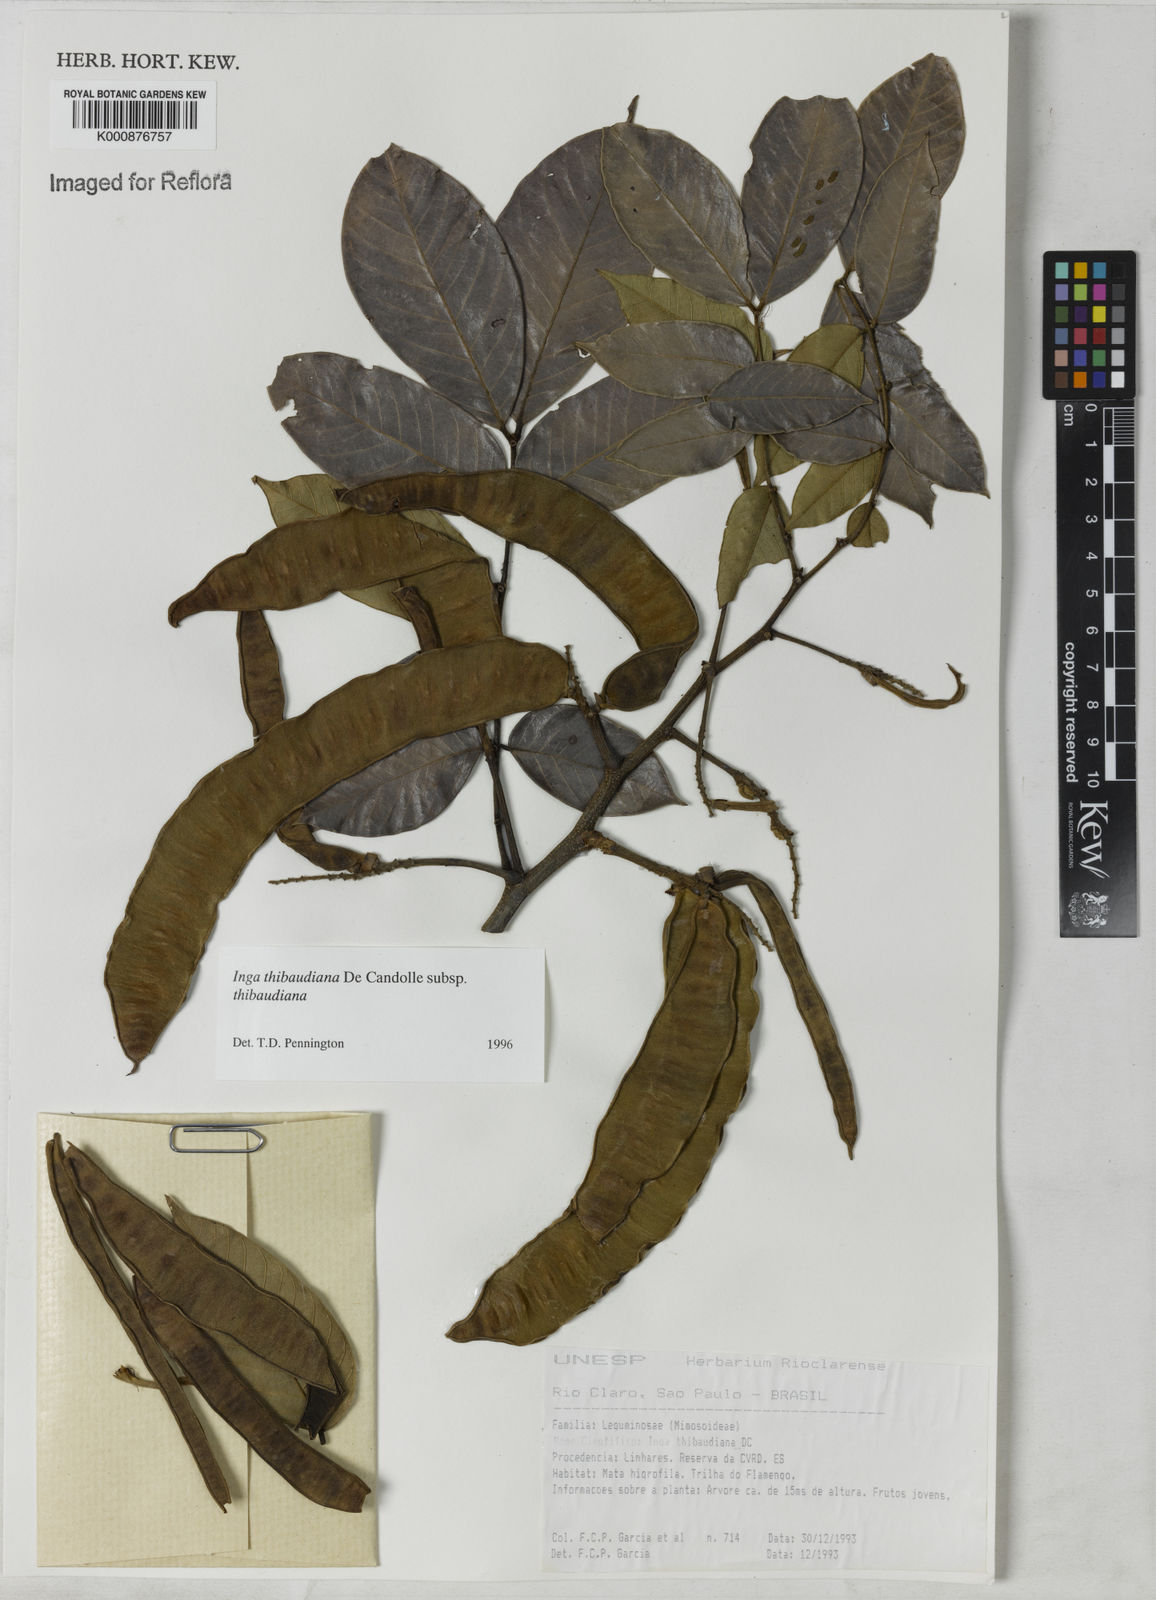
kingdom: Plantae
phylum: Tracheophyta
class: Magnoliopsida
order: Fabales
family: Fabaceae
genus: Inga
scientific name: Inga thibaudiana
